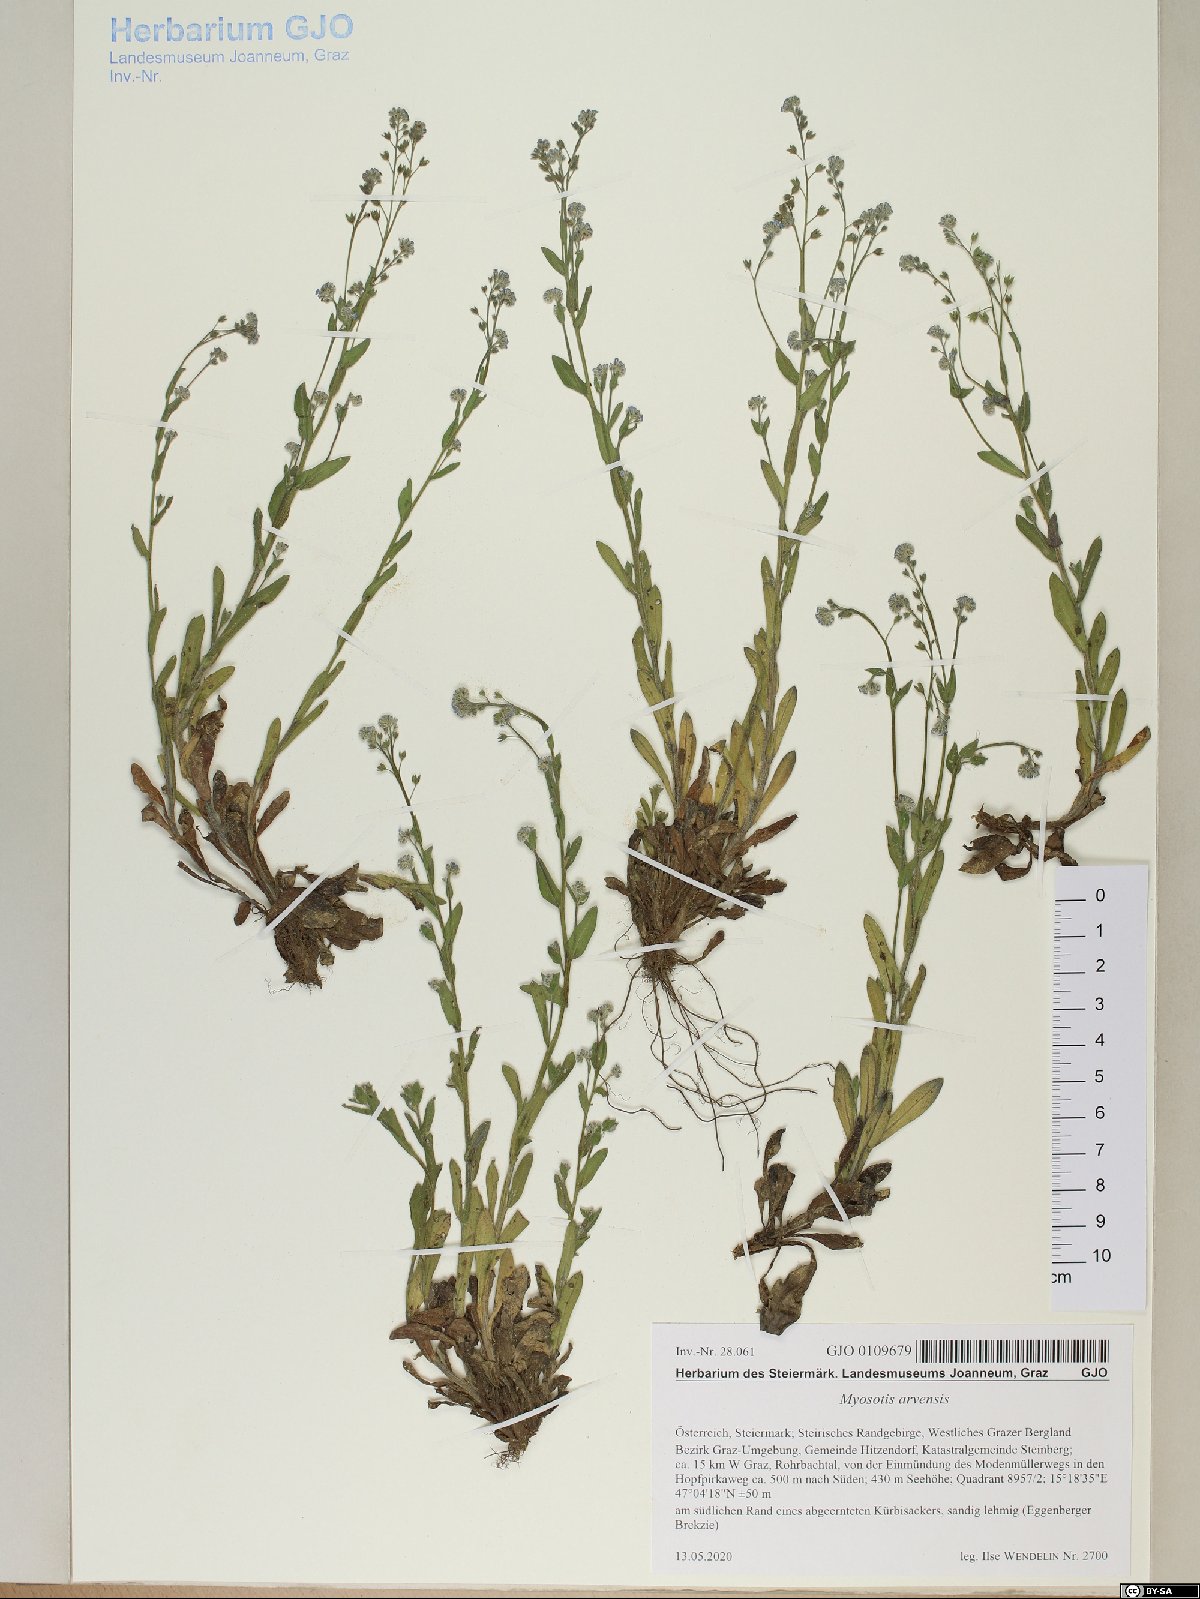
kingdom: Plantae
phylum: Tracheophyta
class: Magnoliopsida
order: Boraginales
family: Boraginaceae
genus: Myosotis
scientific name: Myosotis arvensis
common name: Field forget-me-not
